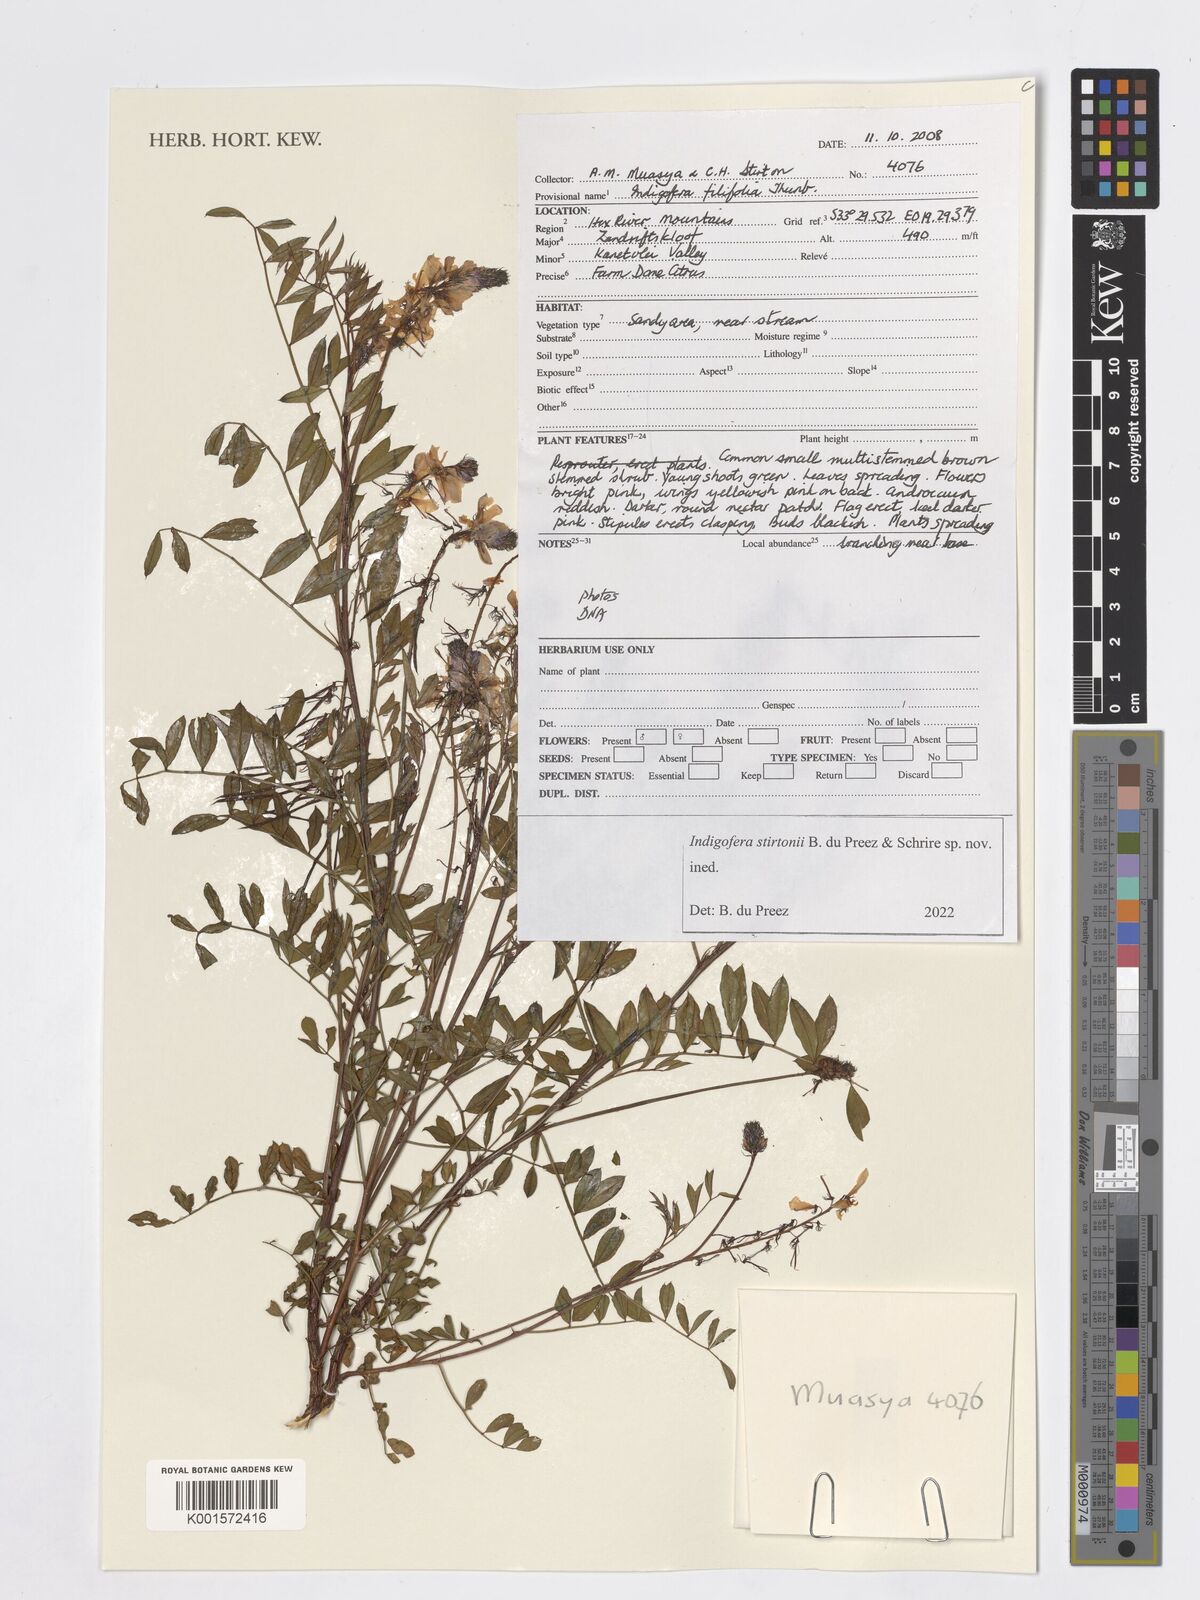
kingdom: Plantae
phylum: Tracheophyta
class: Magnoliopsida
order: Fabales
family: Fabaceae
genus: Indigofera
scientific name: Indigofera
